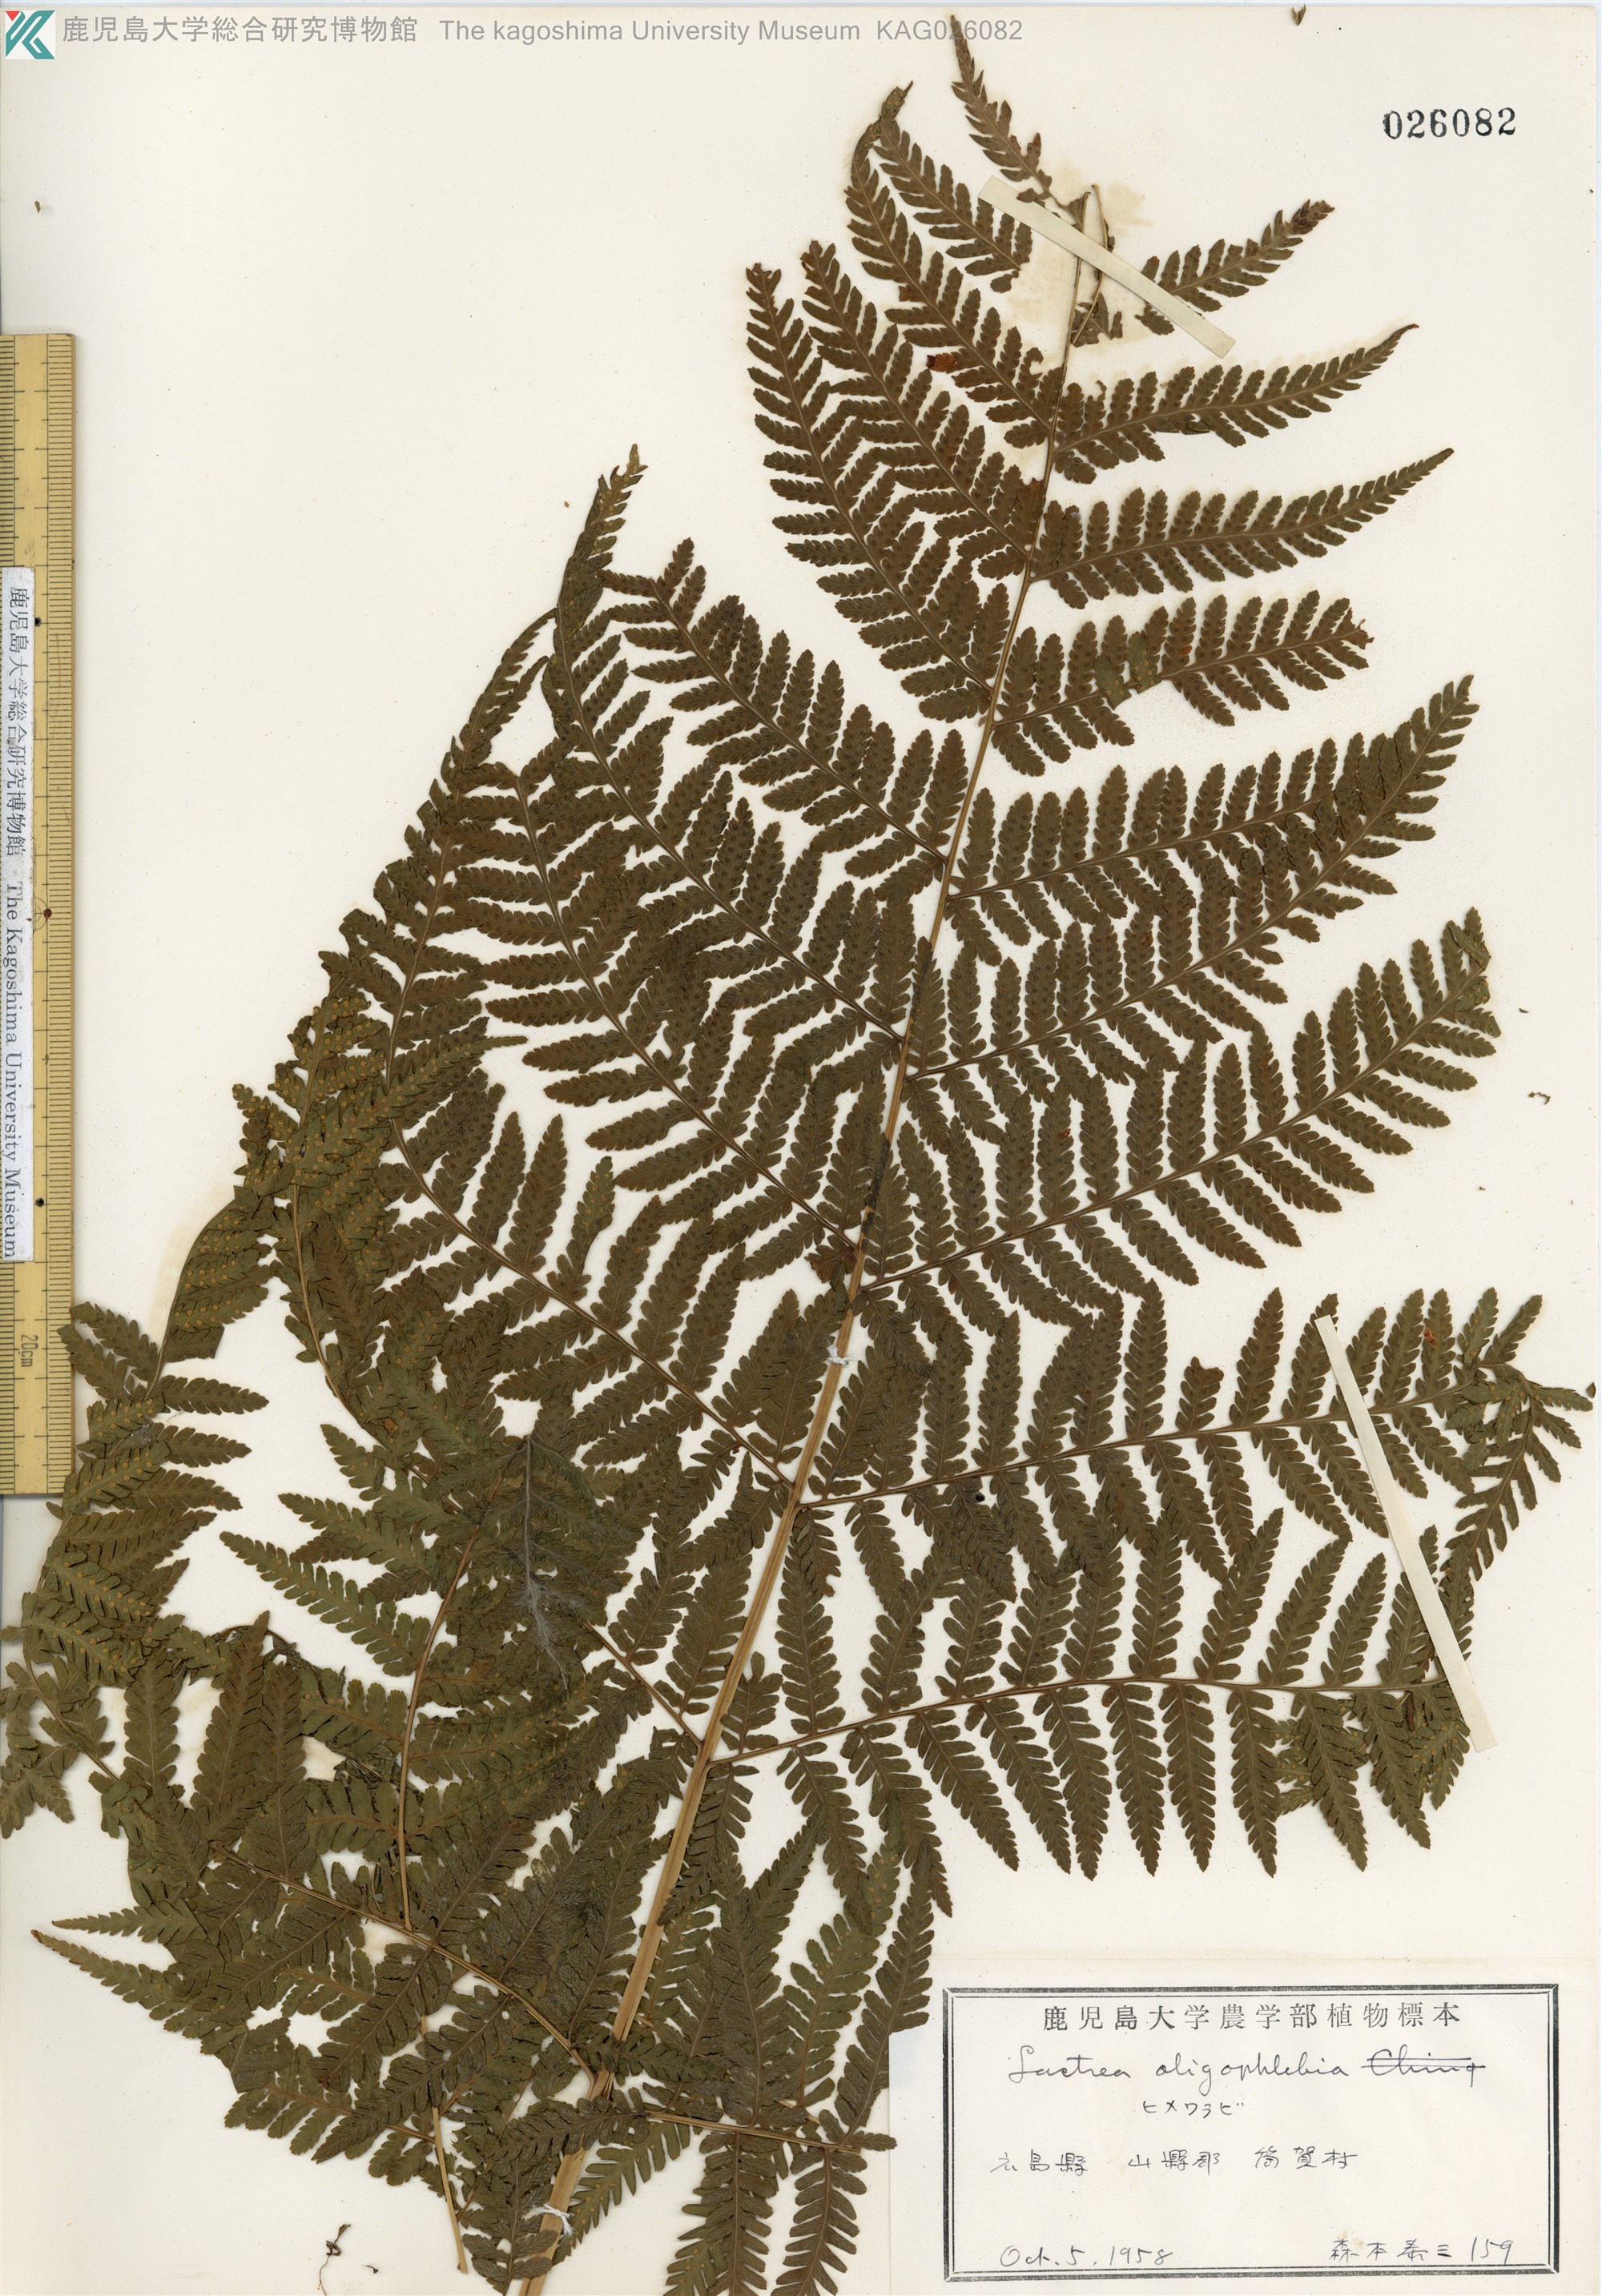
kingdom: Plantae
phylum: Tracheophyta
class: Polypodiopsida
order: Polypodiales
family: Thelypteridaceae
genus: Macrothelypteris
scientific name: Macrothelypteris oligophlebia
